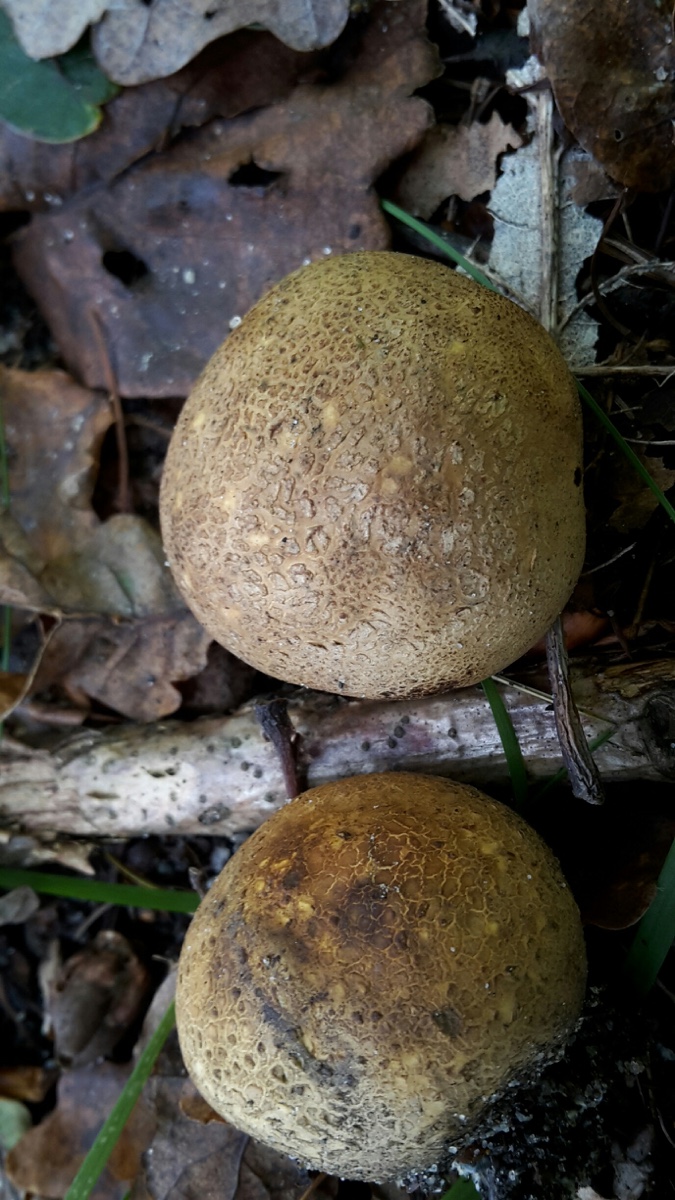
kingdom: Fungi
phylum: Basidiomycota
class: Agaricomycetes
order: Boletales
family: Sclerodermataceae
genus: Scleroderma
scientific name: Scleroderma areolatum
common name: plettet bruskbold
